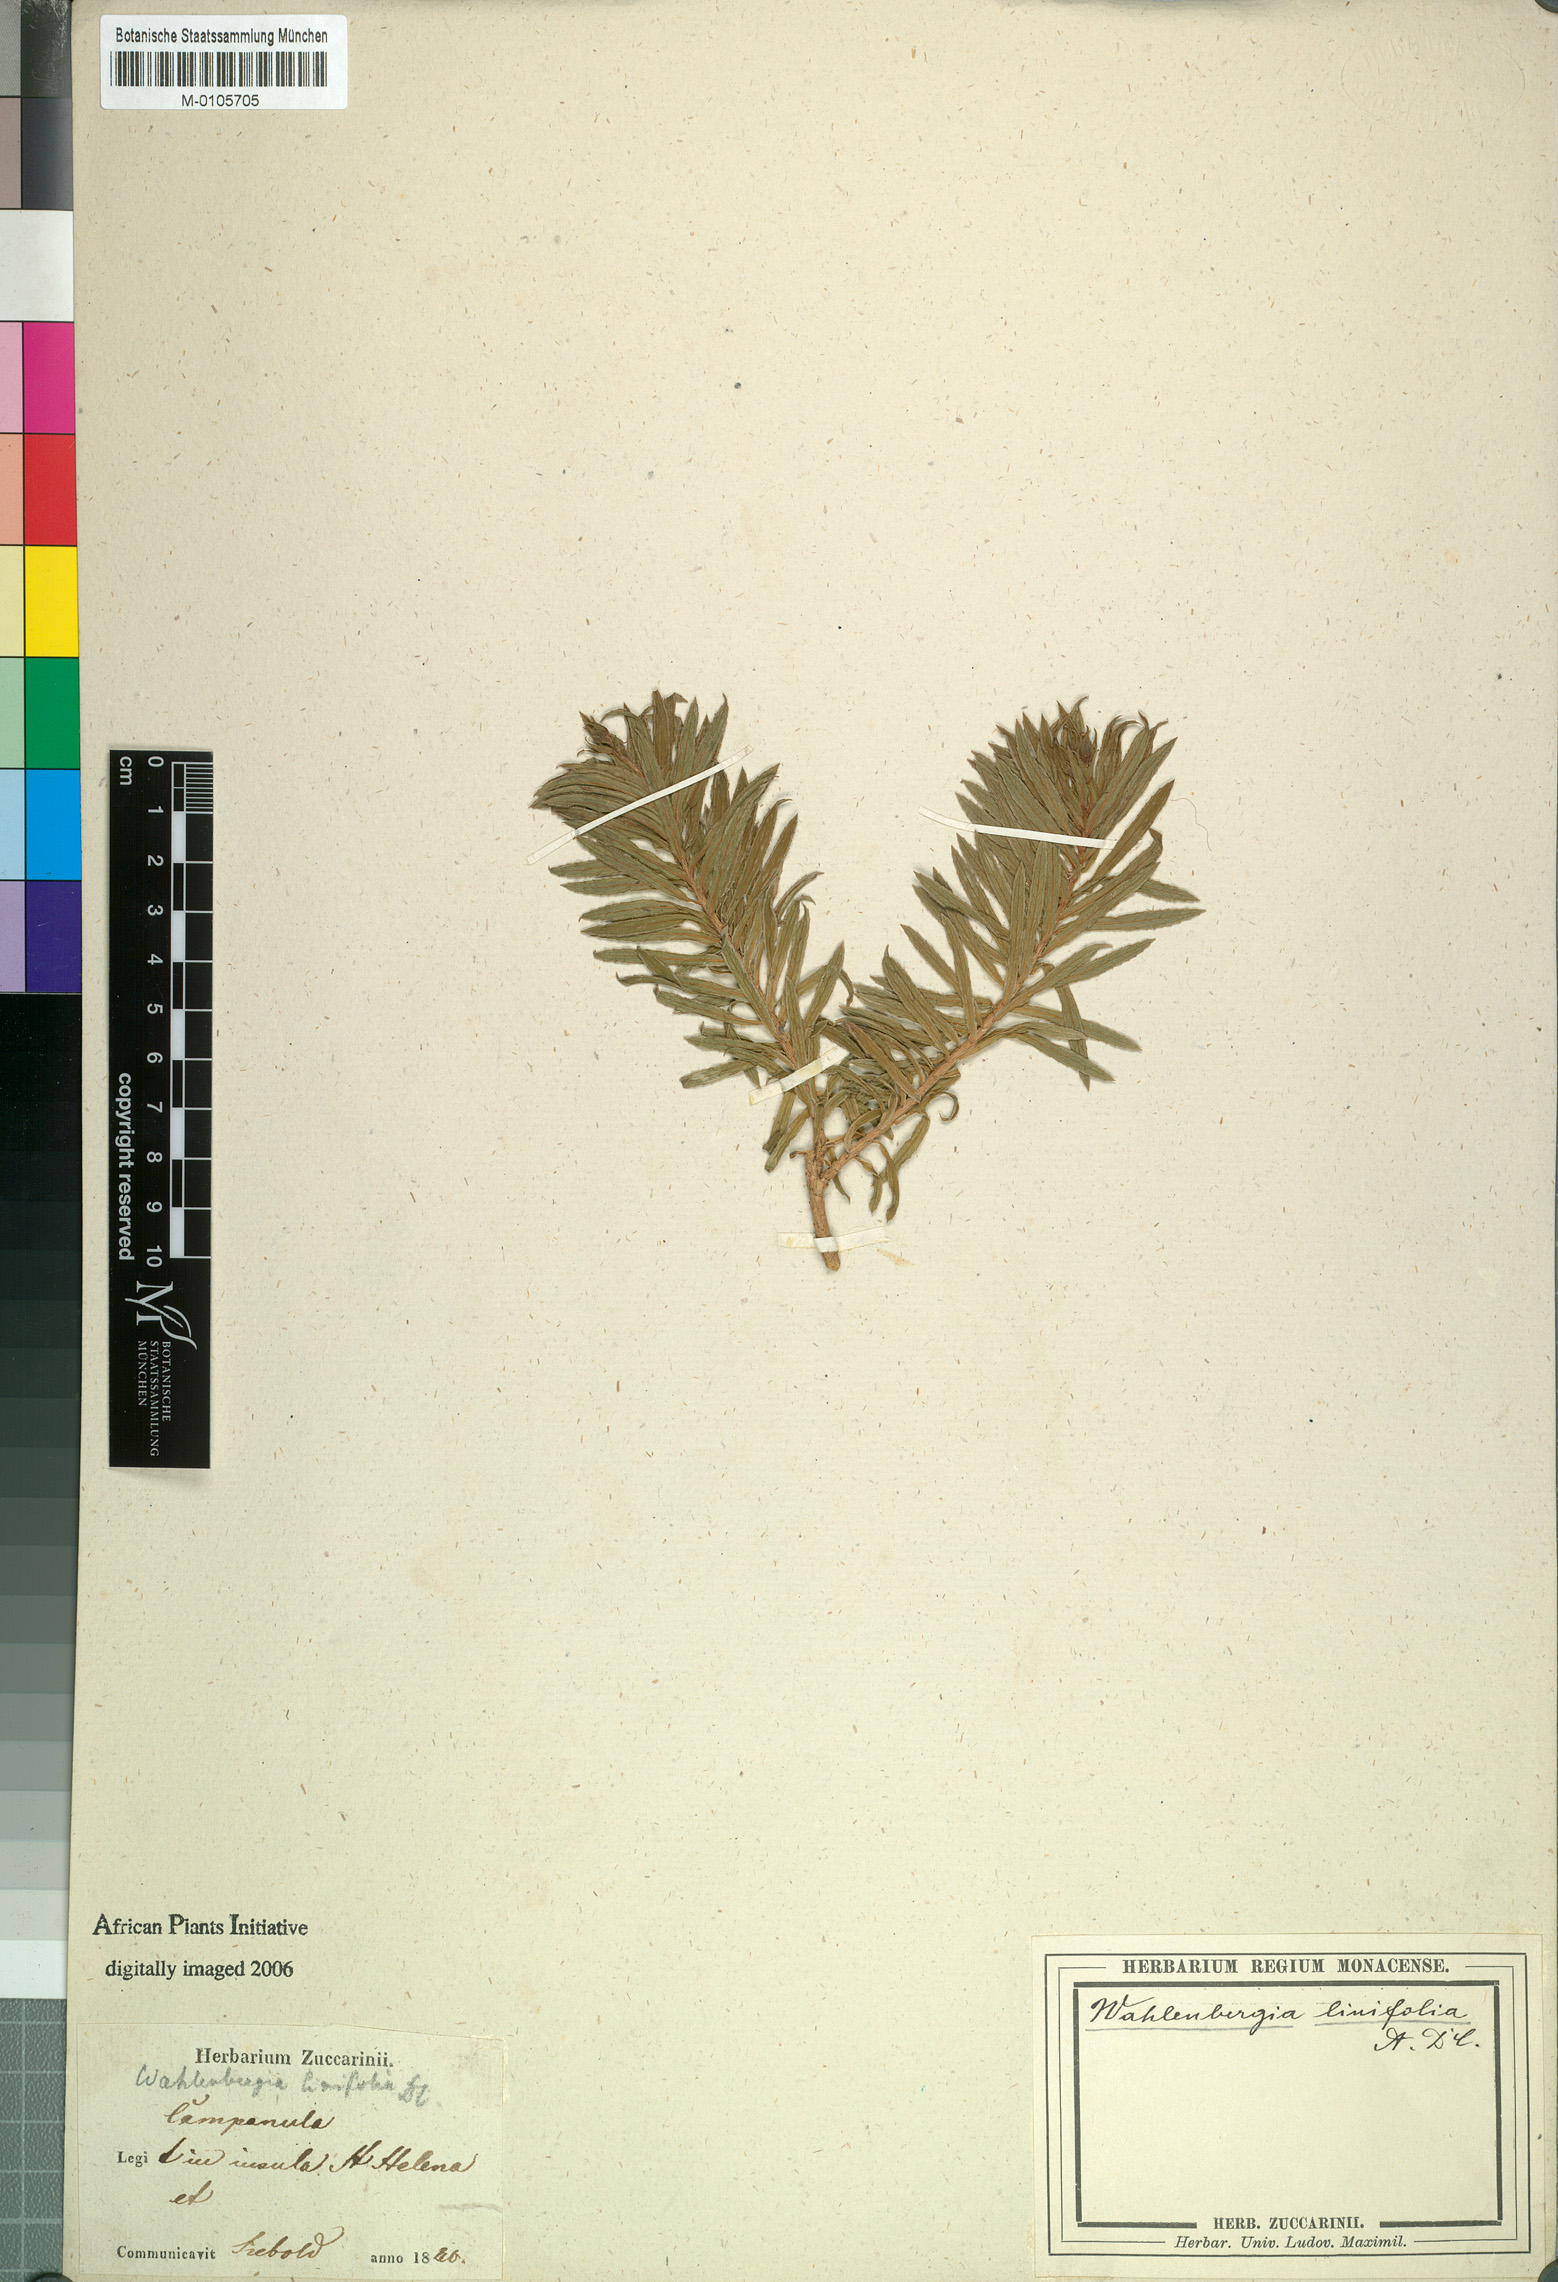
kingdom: Plantae
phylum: Tracheophyta
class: Magnoliopsida
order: Asterales
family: Campanulaceae
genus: Wahlenbergia
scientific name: Wahlenbergia linifolia
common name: Large bellflower
